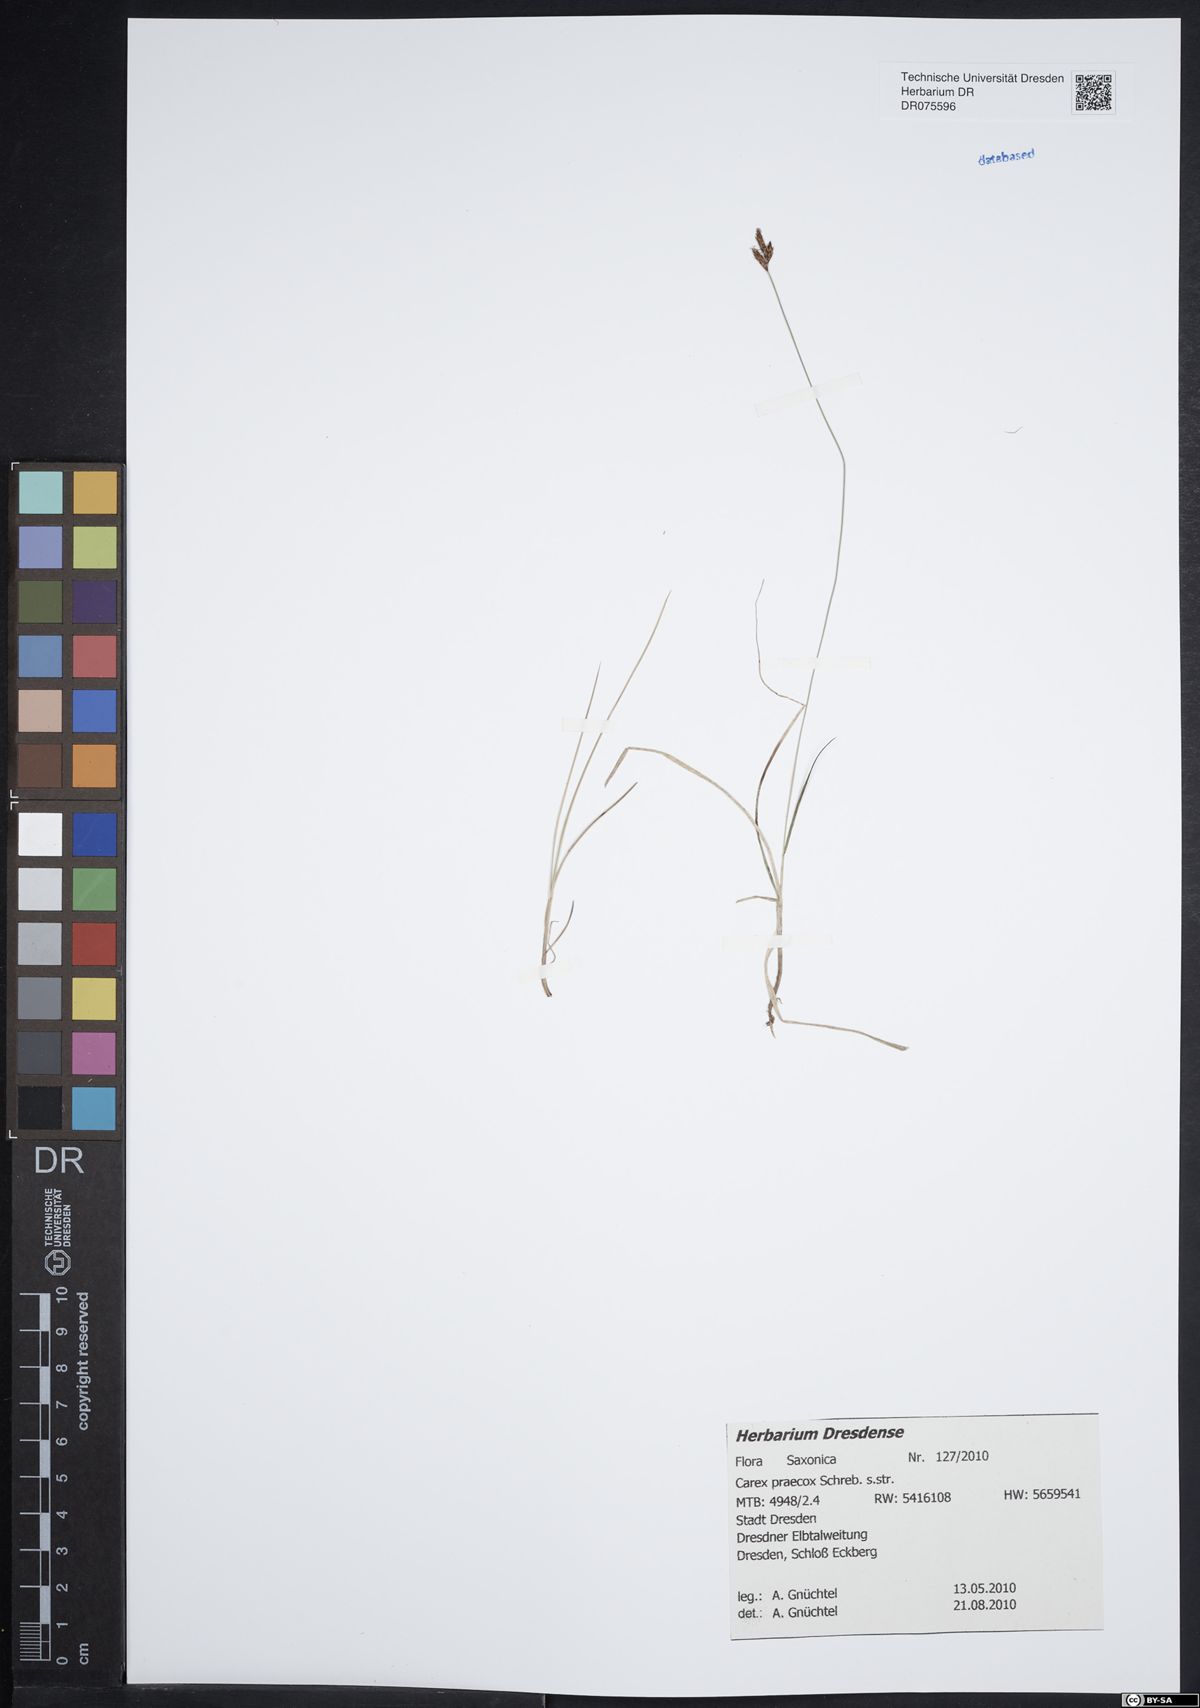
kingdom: Plantae
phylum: Tracheophyta
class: Liliopsida
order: Poales
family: Cyperaceae
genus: Carex
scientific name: Carex praecox
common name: Early sedge
